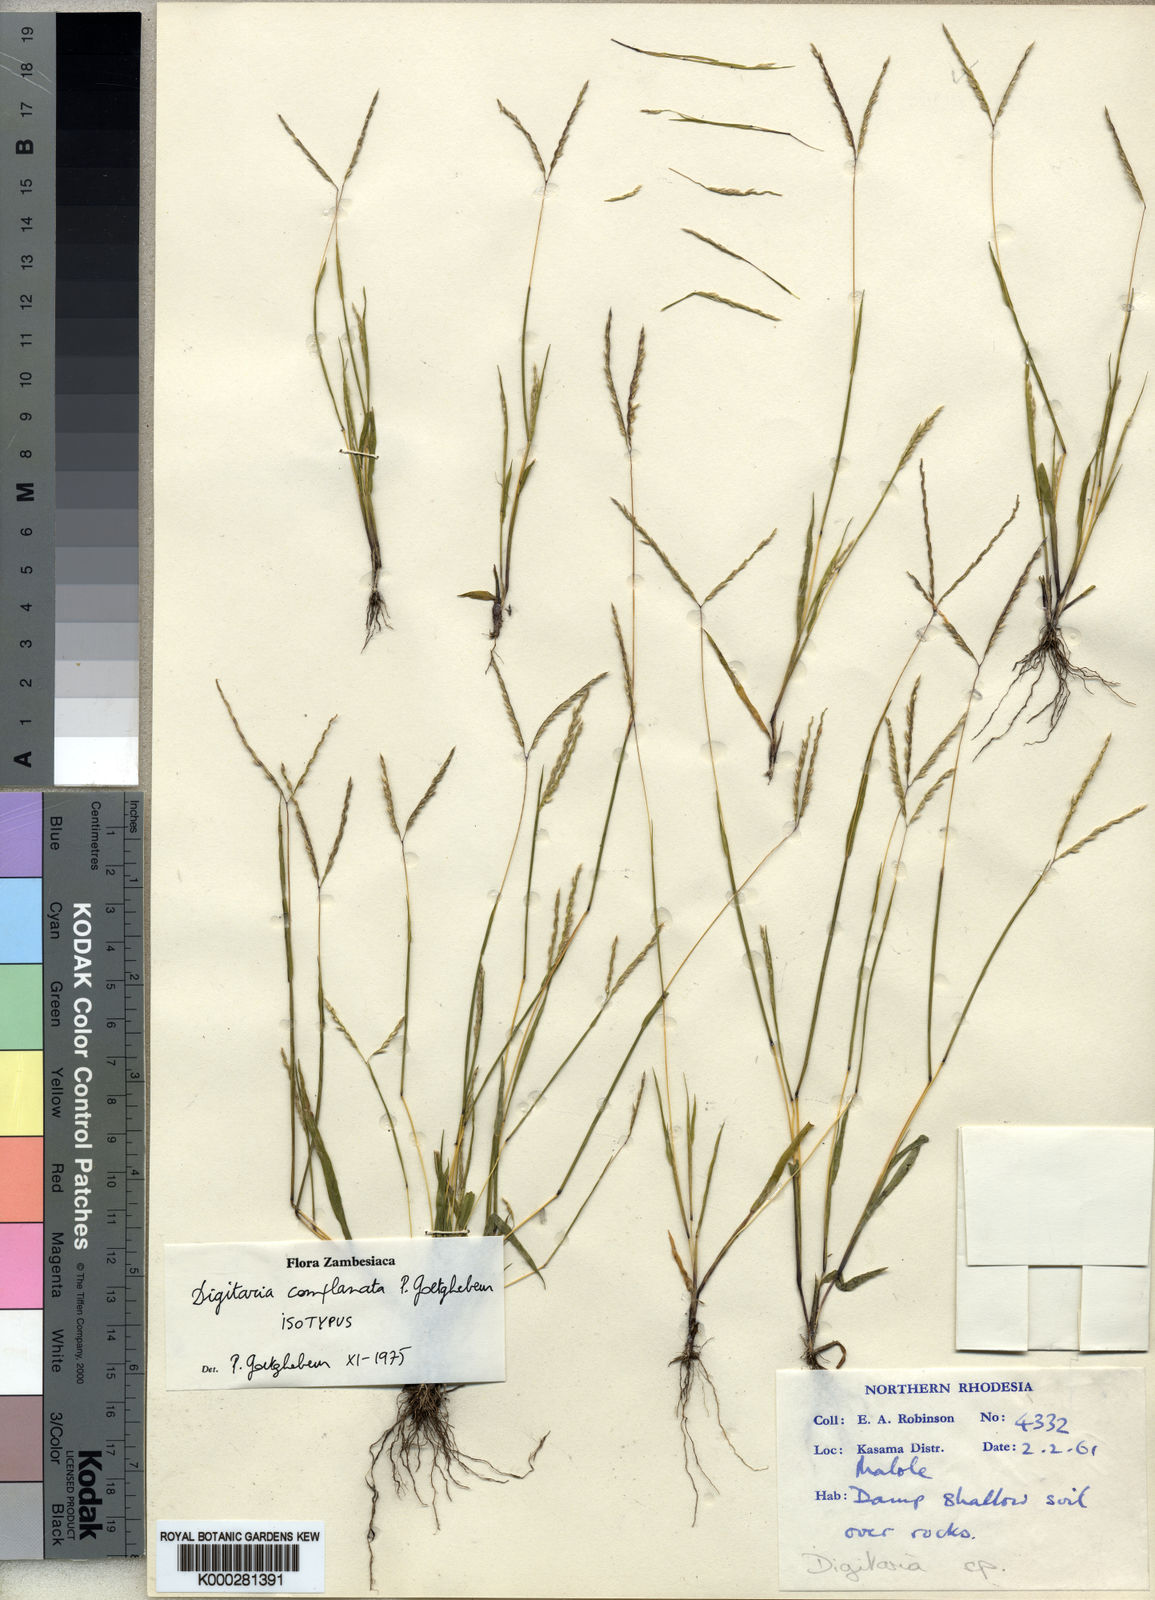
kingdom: Plantae
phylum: Tracheophyta
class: Liliopsida
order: Poales
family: Poaceae
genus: Digitaria
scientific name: Digitaria complanata
